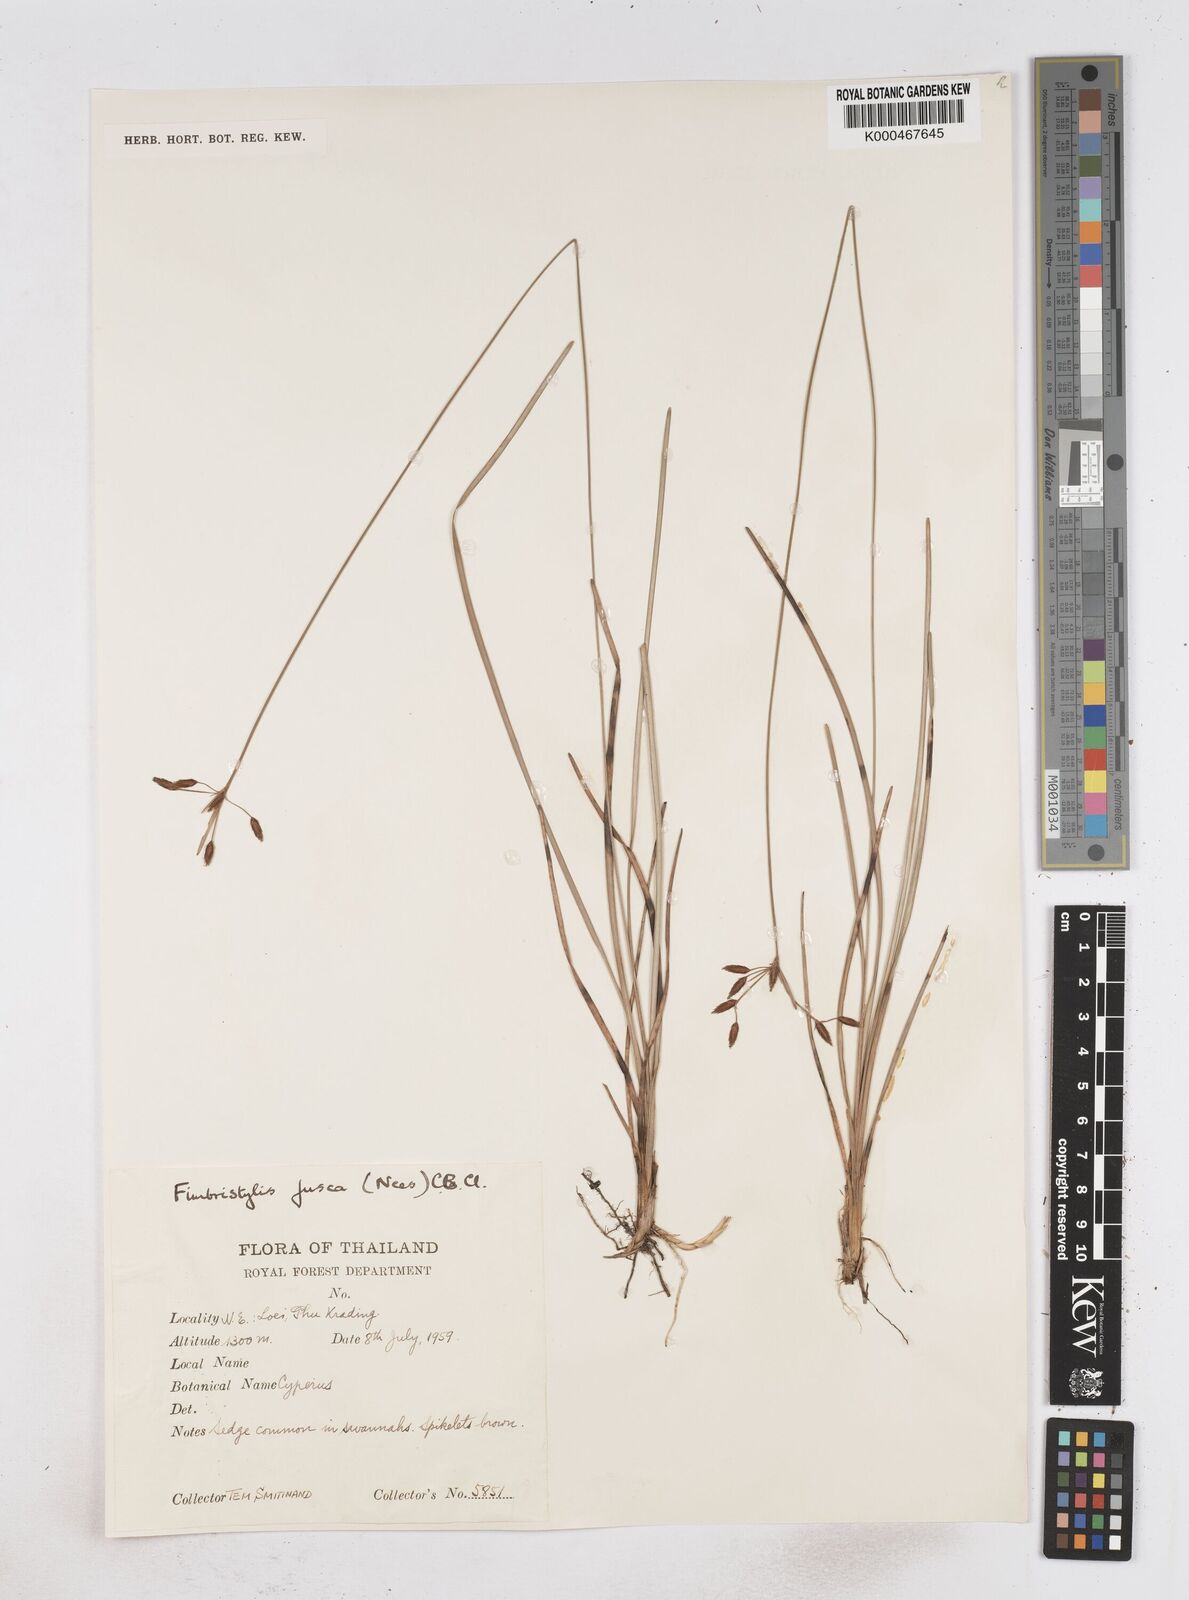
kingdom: Plantae
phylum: Tracheophyta
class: Liliopsida
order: Poales
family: Cyperaceae
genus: Fimbristylis
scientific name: Fimbristylis fusca
